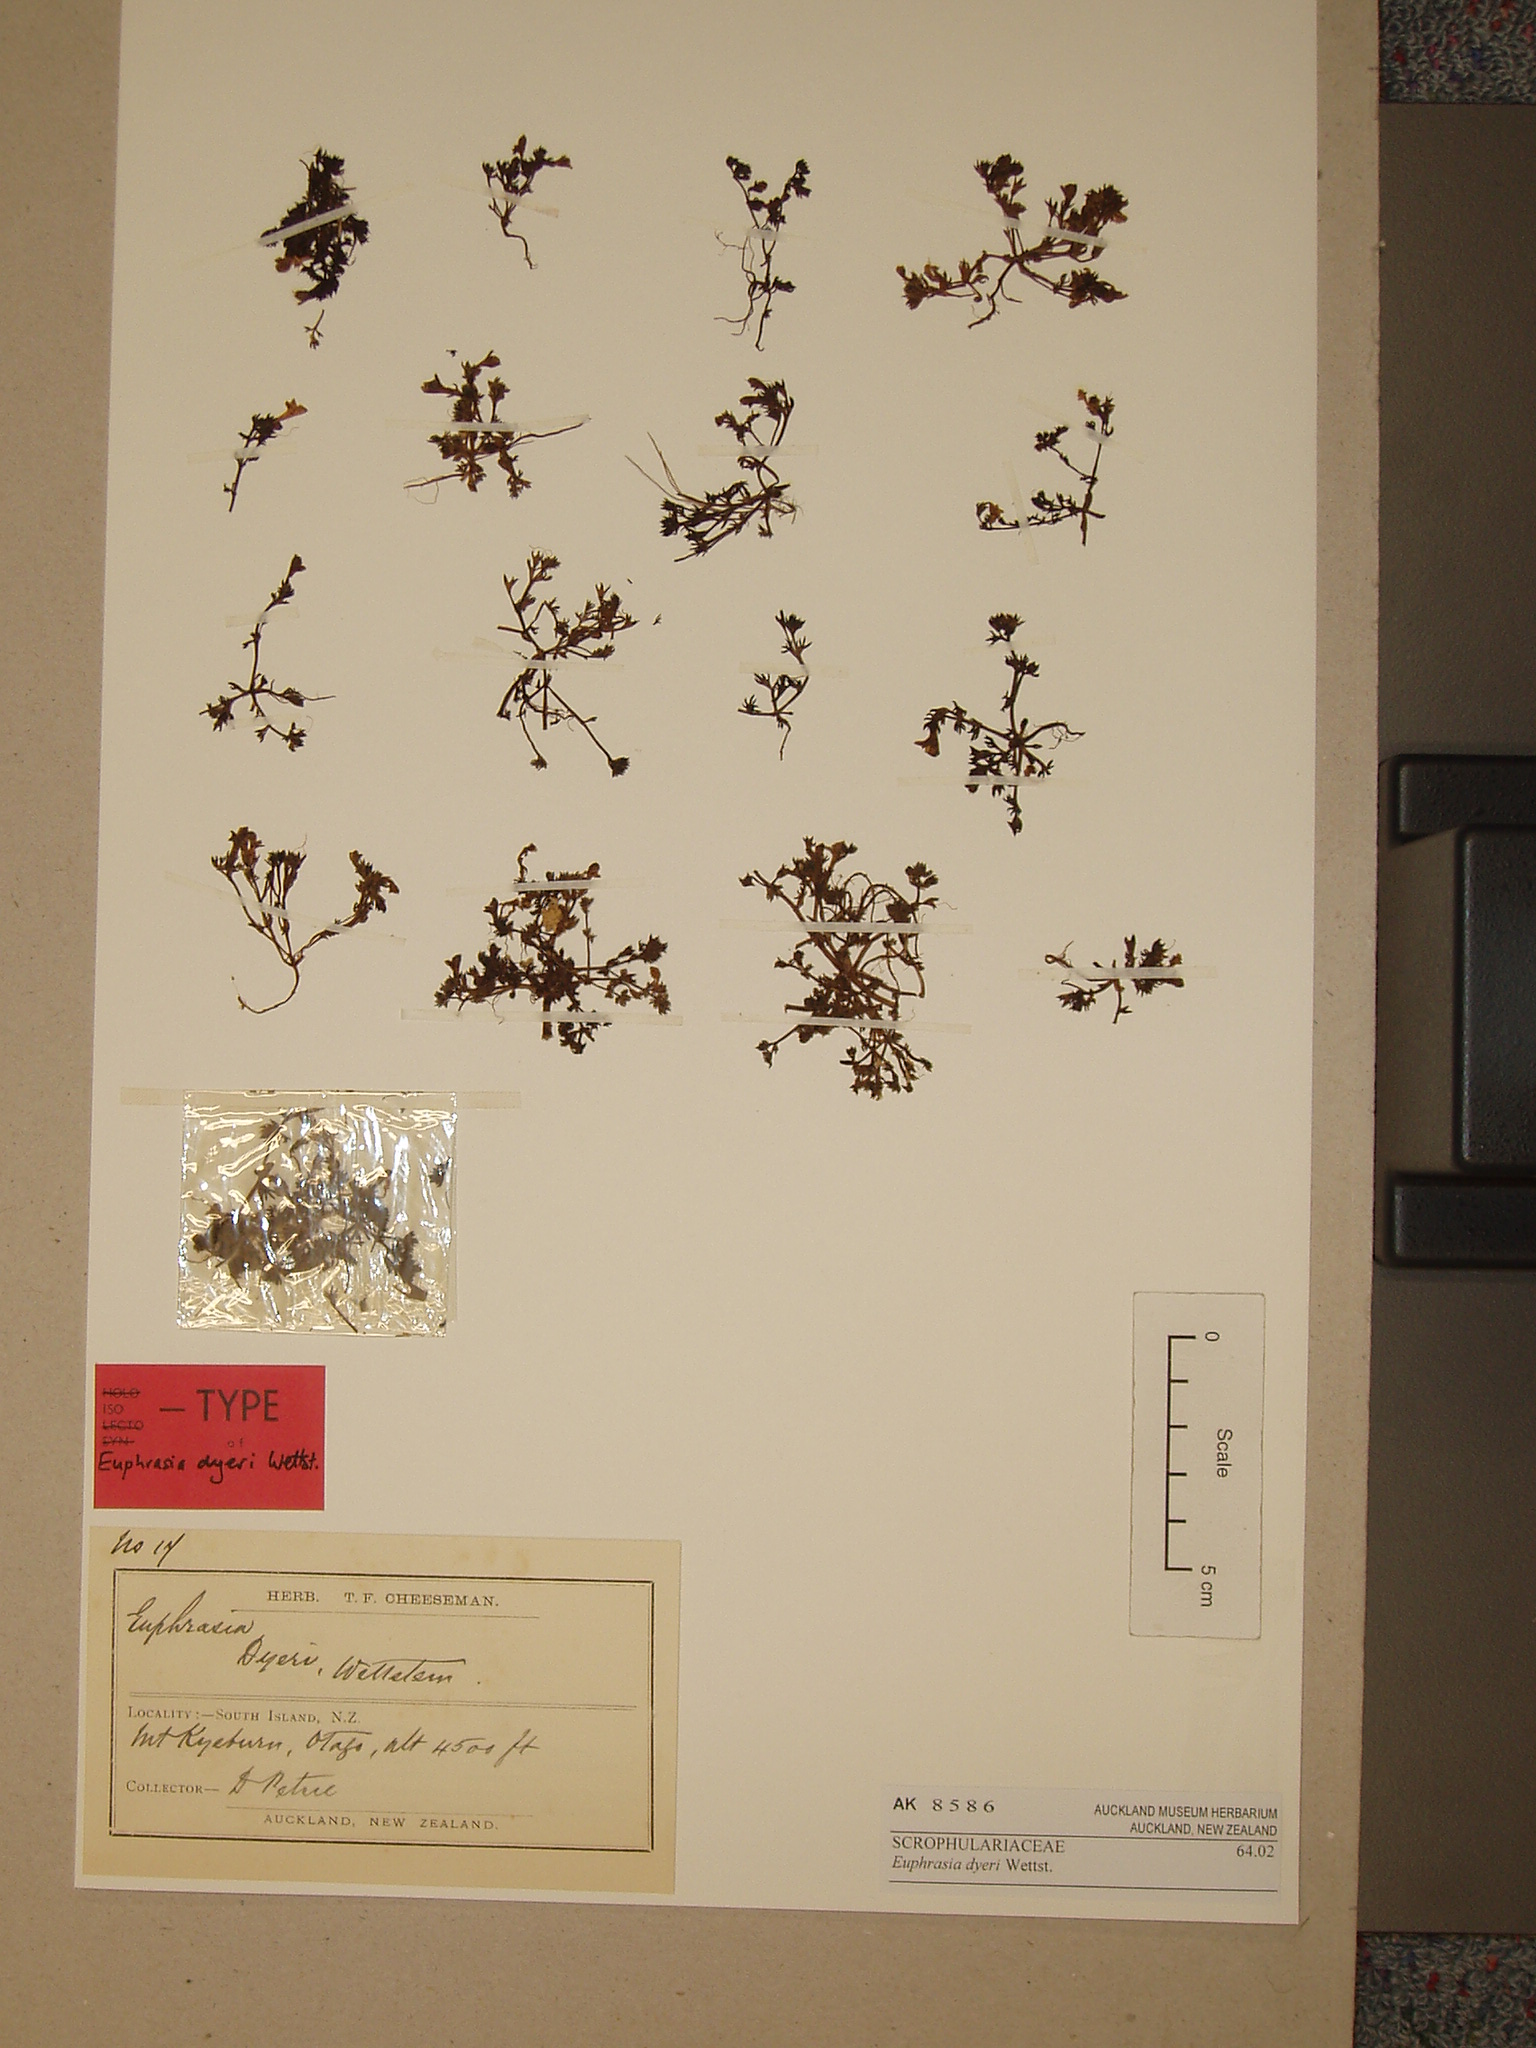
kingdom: Plantae
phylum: Tracheophyta
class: Magnoliopsida
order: Lamiales
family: Orobanchaceae
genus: Euphrasia
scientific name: Euphrasia dyeri
